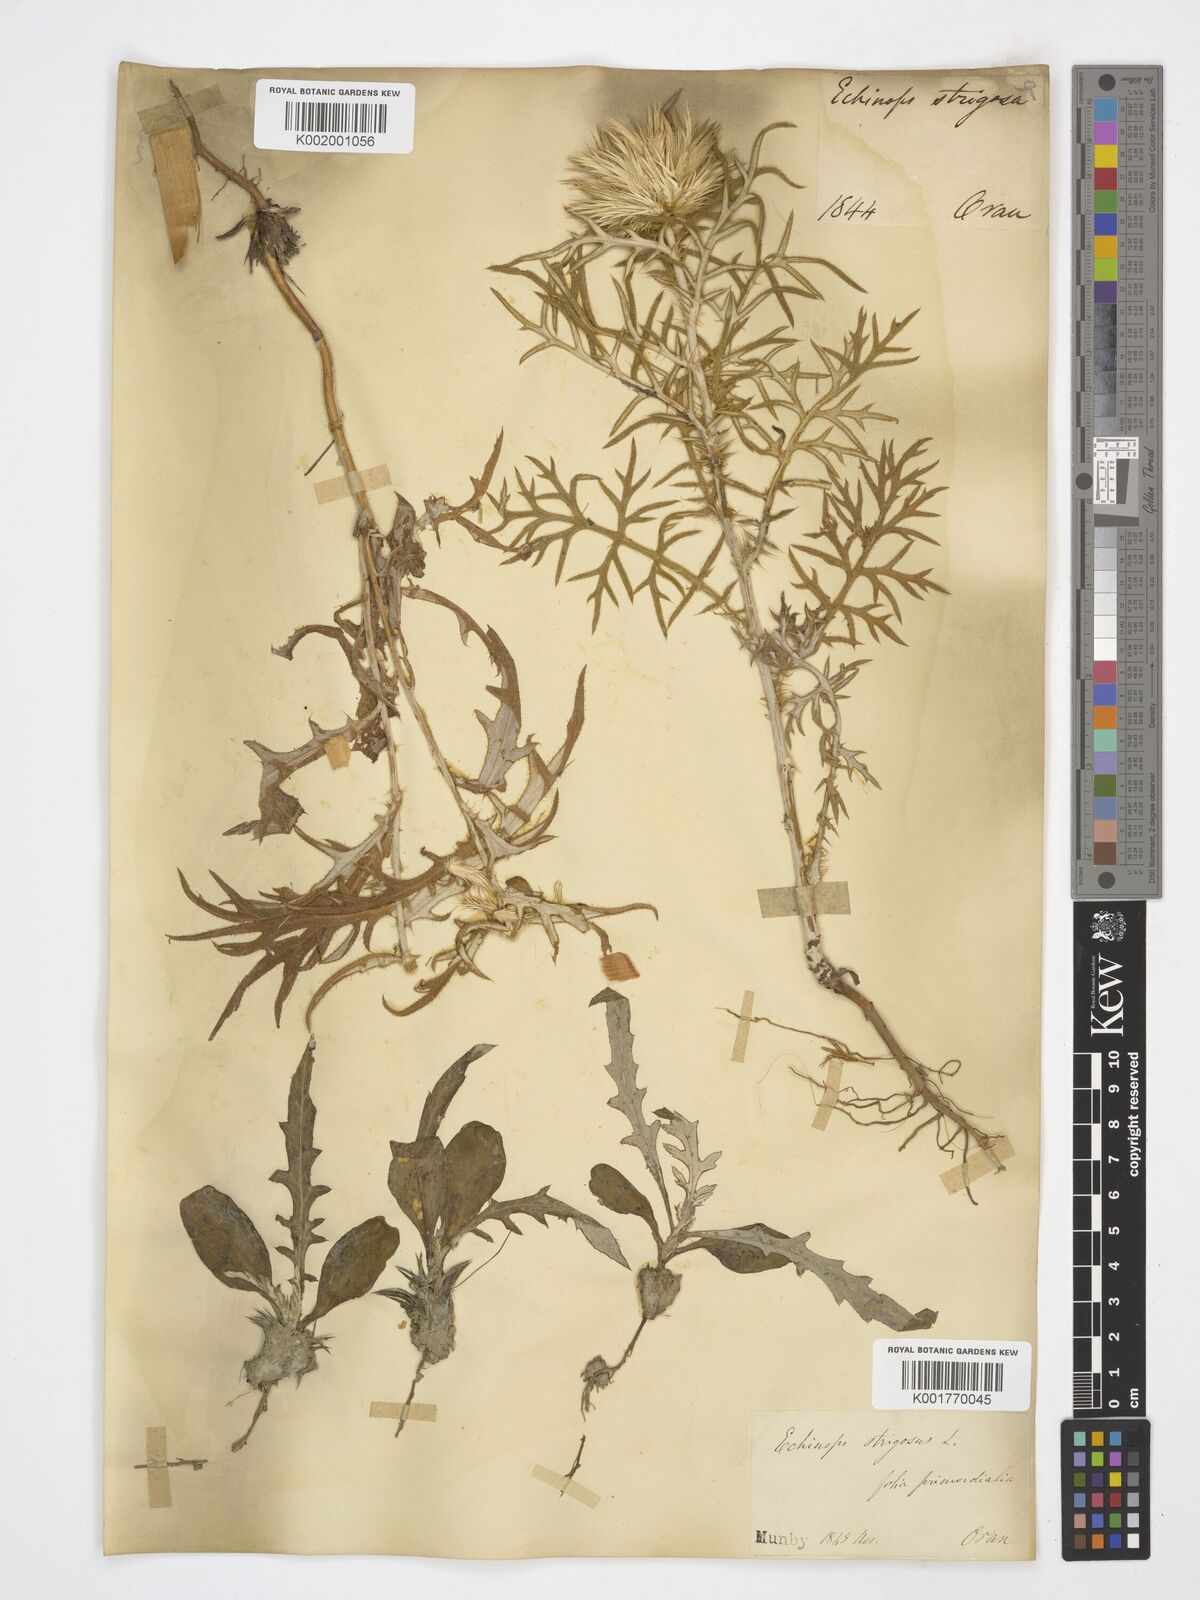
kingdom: Plantae
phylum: Tracheophyta
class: Magnoliopsida
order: Asterales
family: Asteraceae
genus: Echinops
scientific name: Echinops strigosus
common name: Rough-leaf globe thistle
